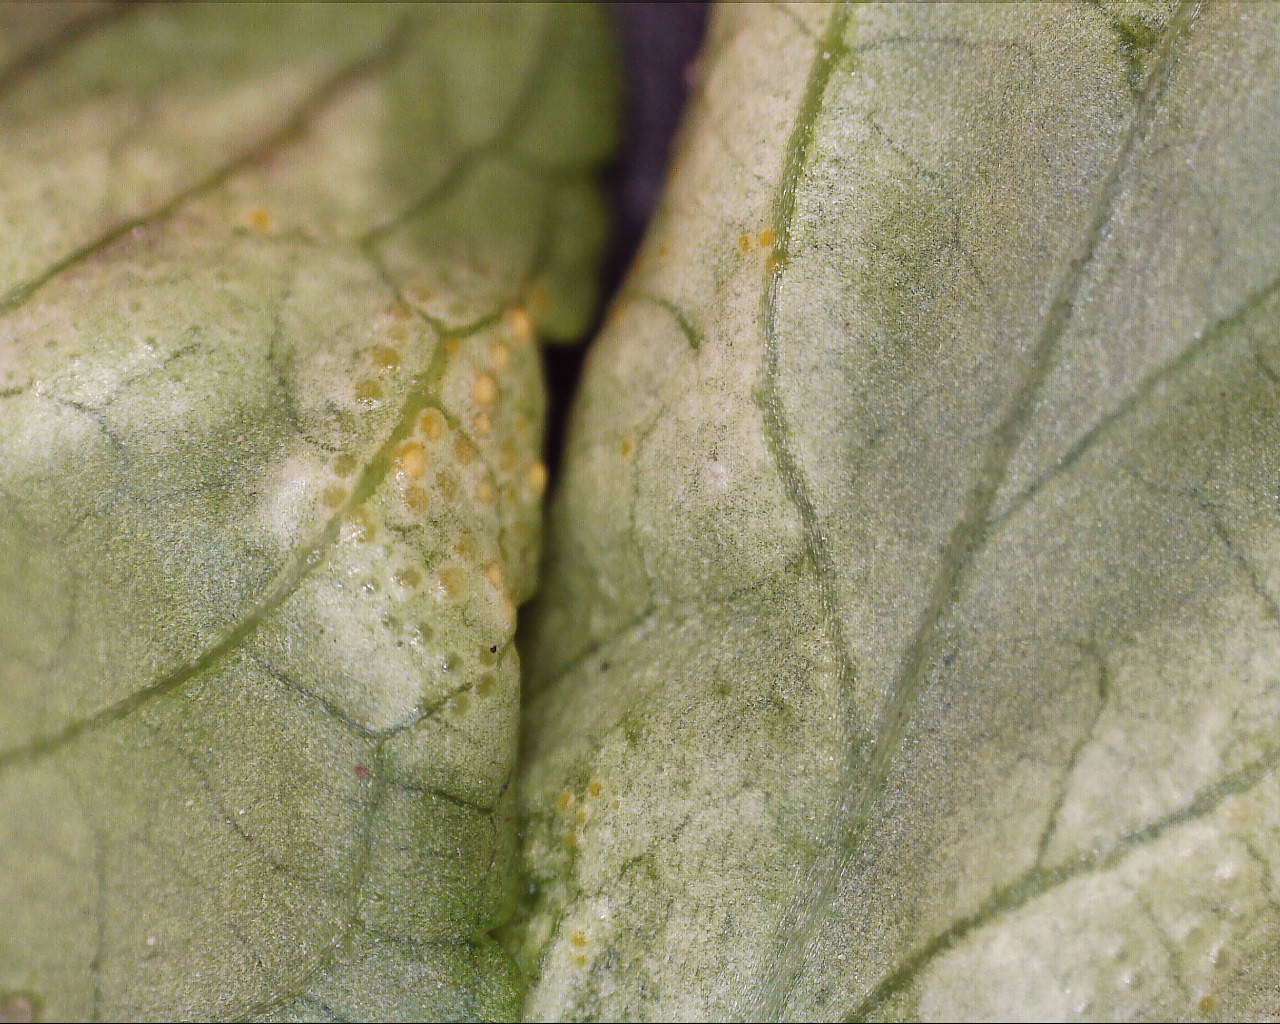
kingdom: Fungi
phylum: Basidiomycota
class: Pucciniomycetes
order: Pucciniales
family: Pucciniaceae
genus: Puccinia
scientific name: Puccinia violae
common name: viol-tvecellerust
